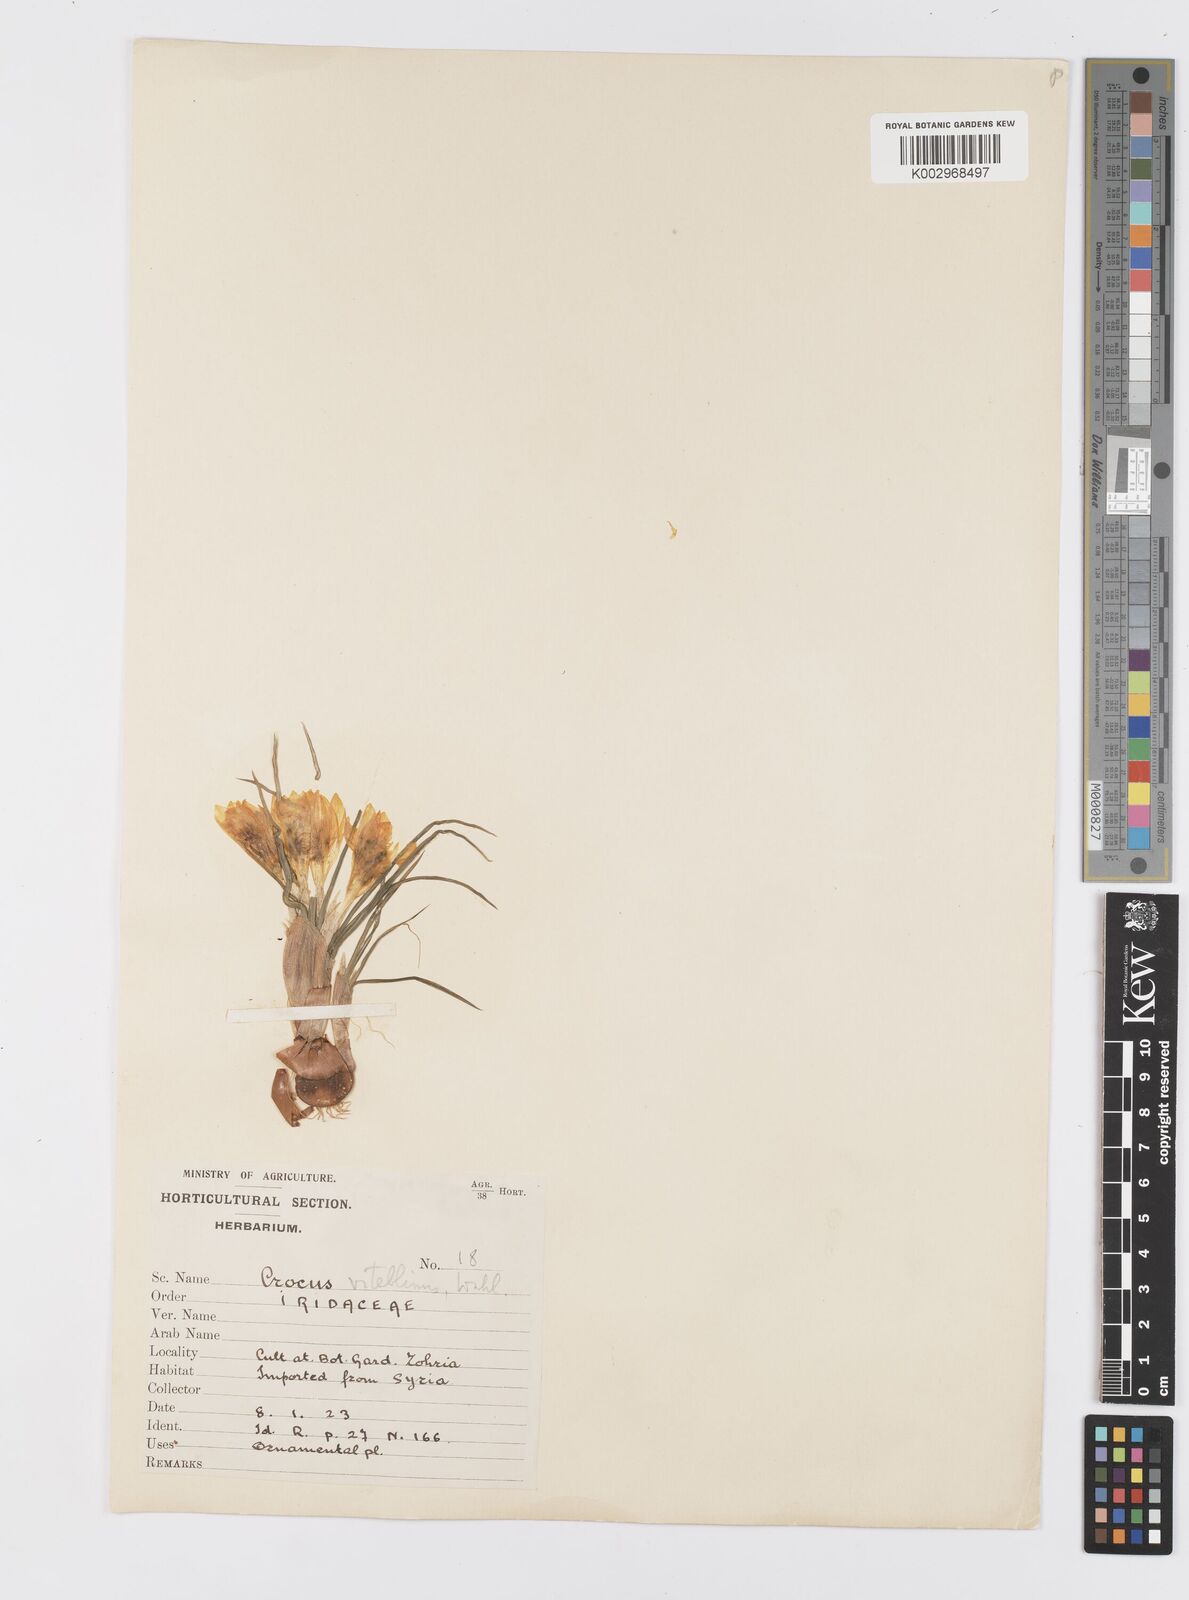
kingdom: Plantae
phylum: Tracheophyta
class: Liliopsida
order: Asparagales
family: Iridaceae
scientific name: Iridaceae
